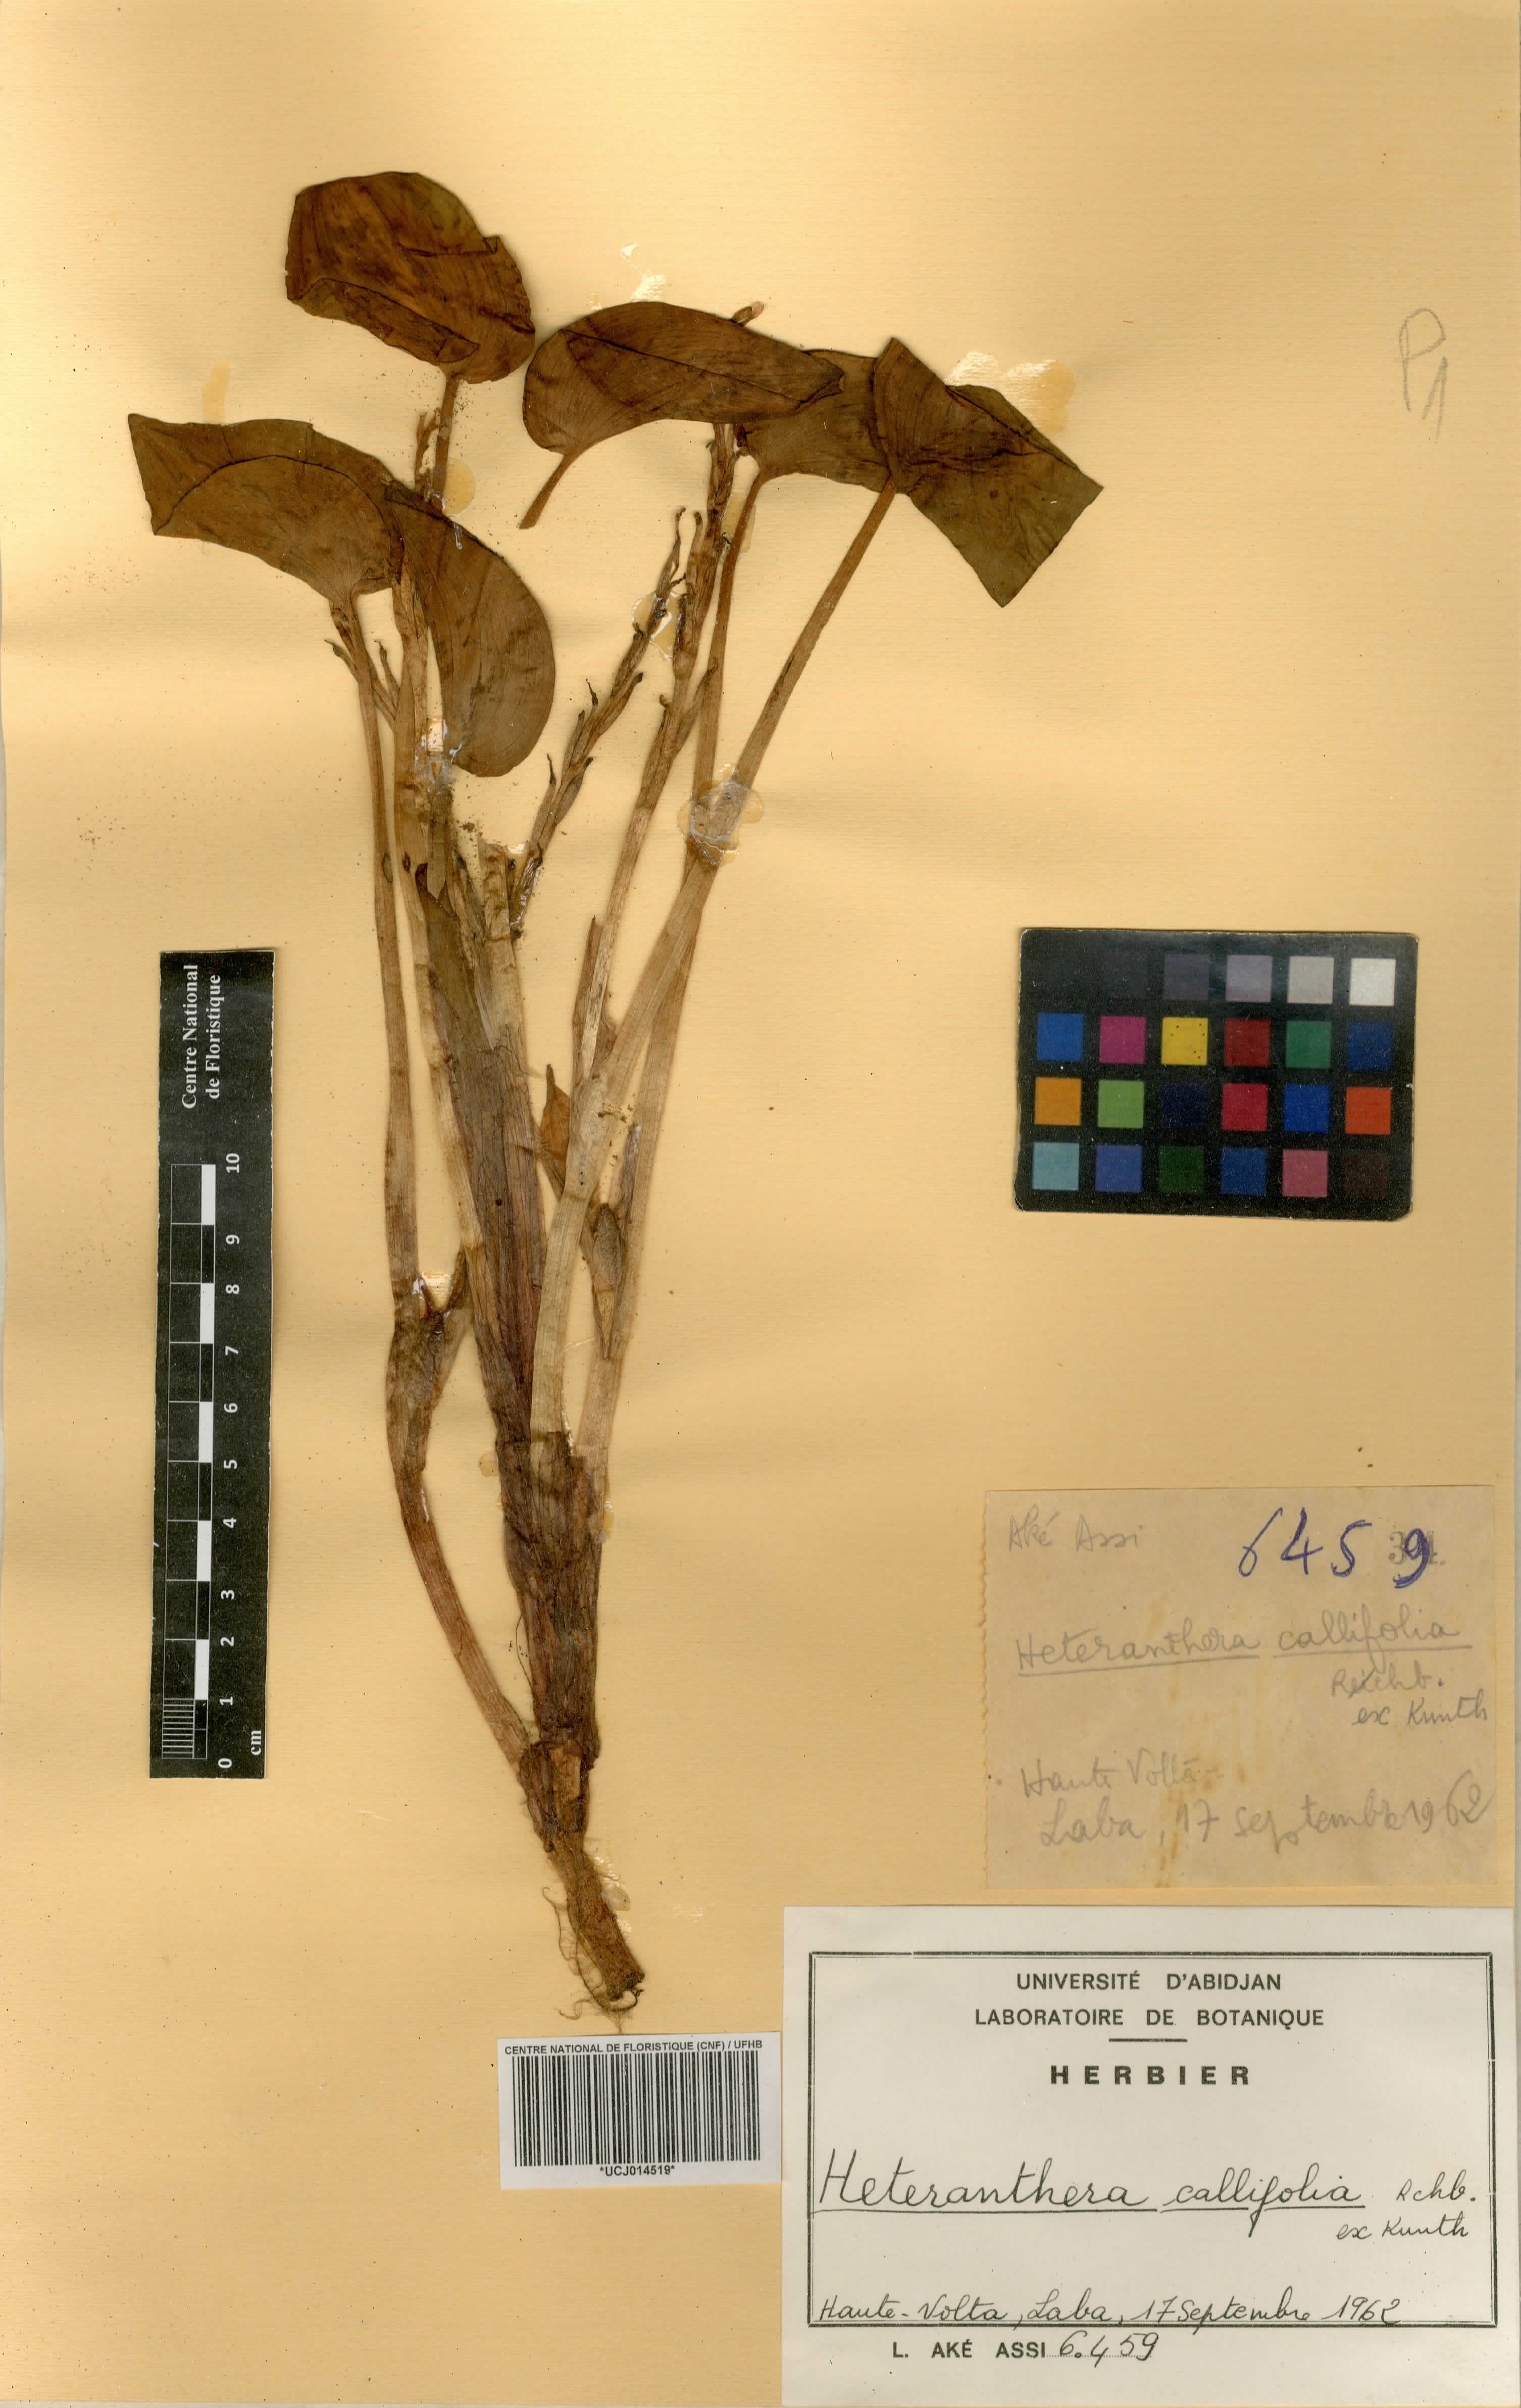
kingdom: Plantae
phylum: Tracheophyta
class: Liliopsida
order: Commelinales
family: Pontederiaceae
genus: Heteranthera
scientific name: Heteranthera callifolia
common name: Mud plantain
